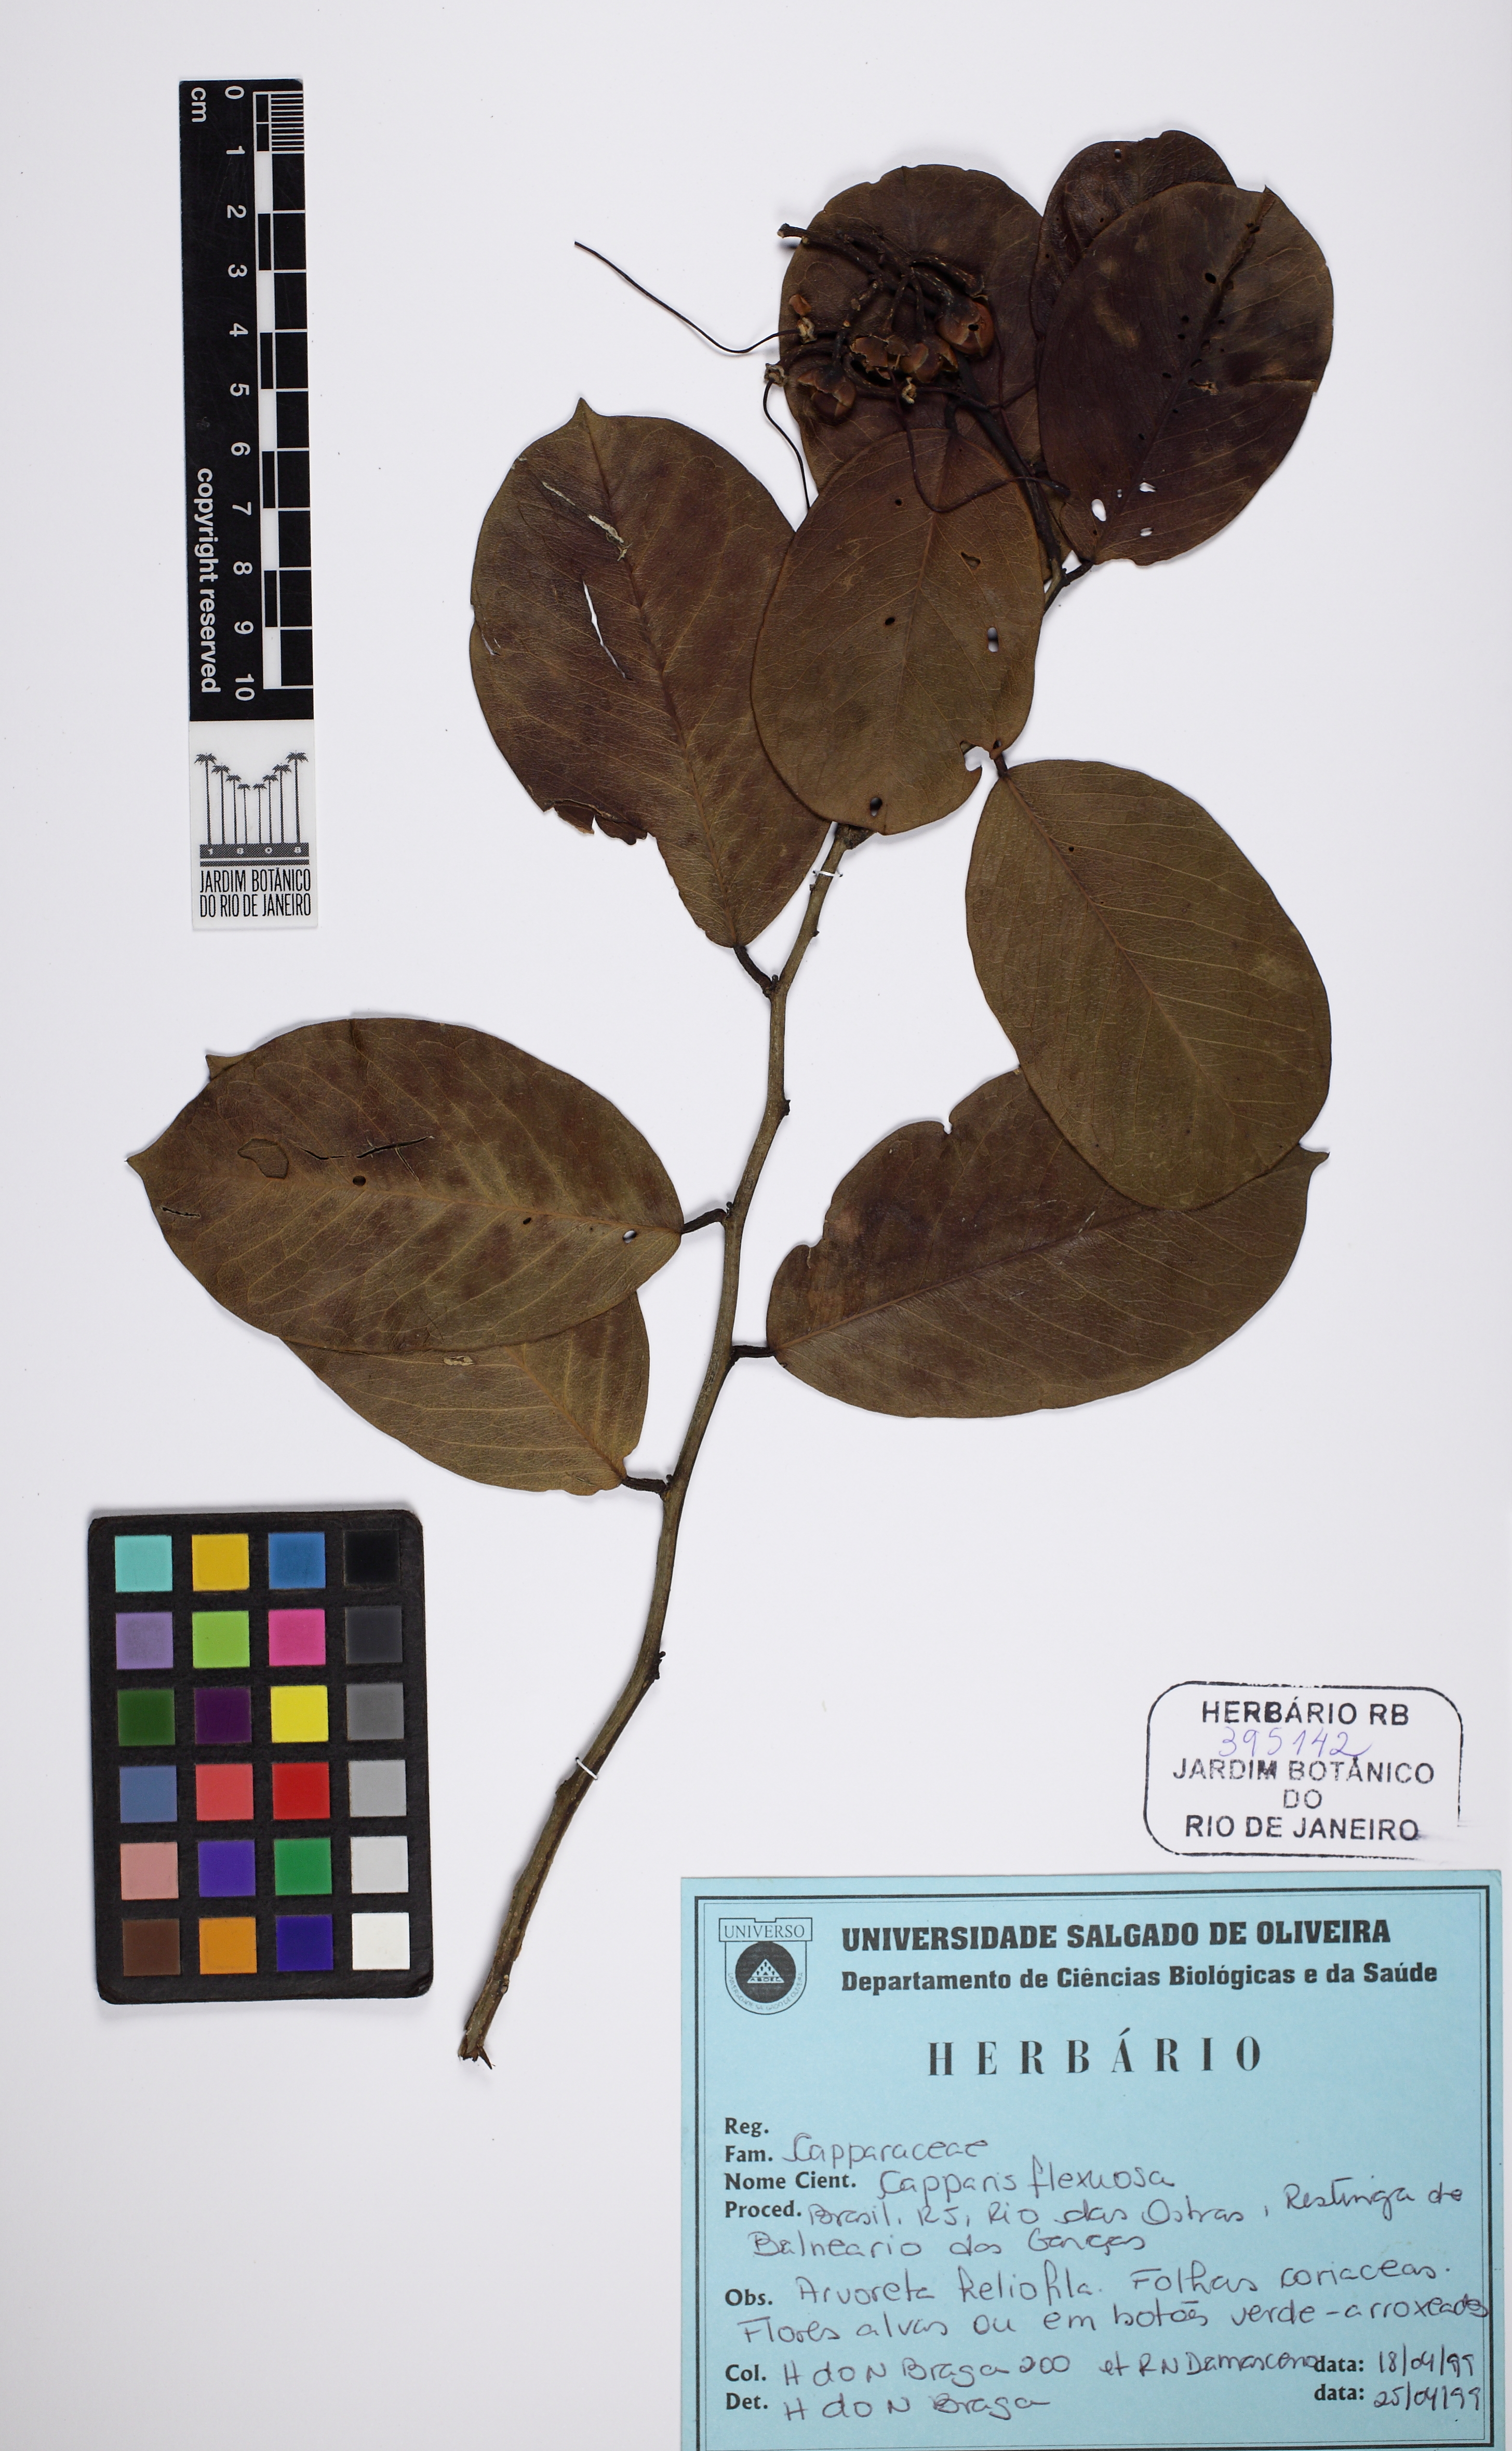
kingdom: Plantae
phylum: Tracheophyta
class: Magnoliopsida
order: Brassicales
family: Capparaceae
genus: Cynophalla
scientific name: Cynophalla flexuosa
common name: Capertree
